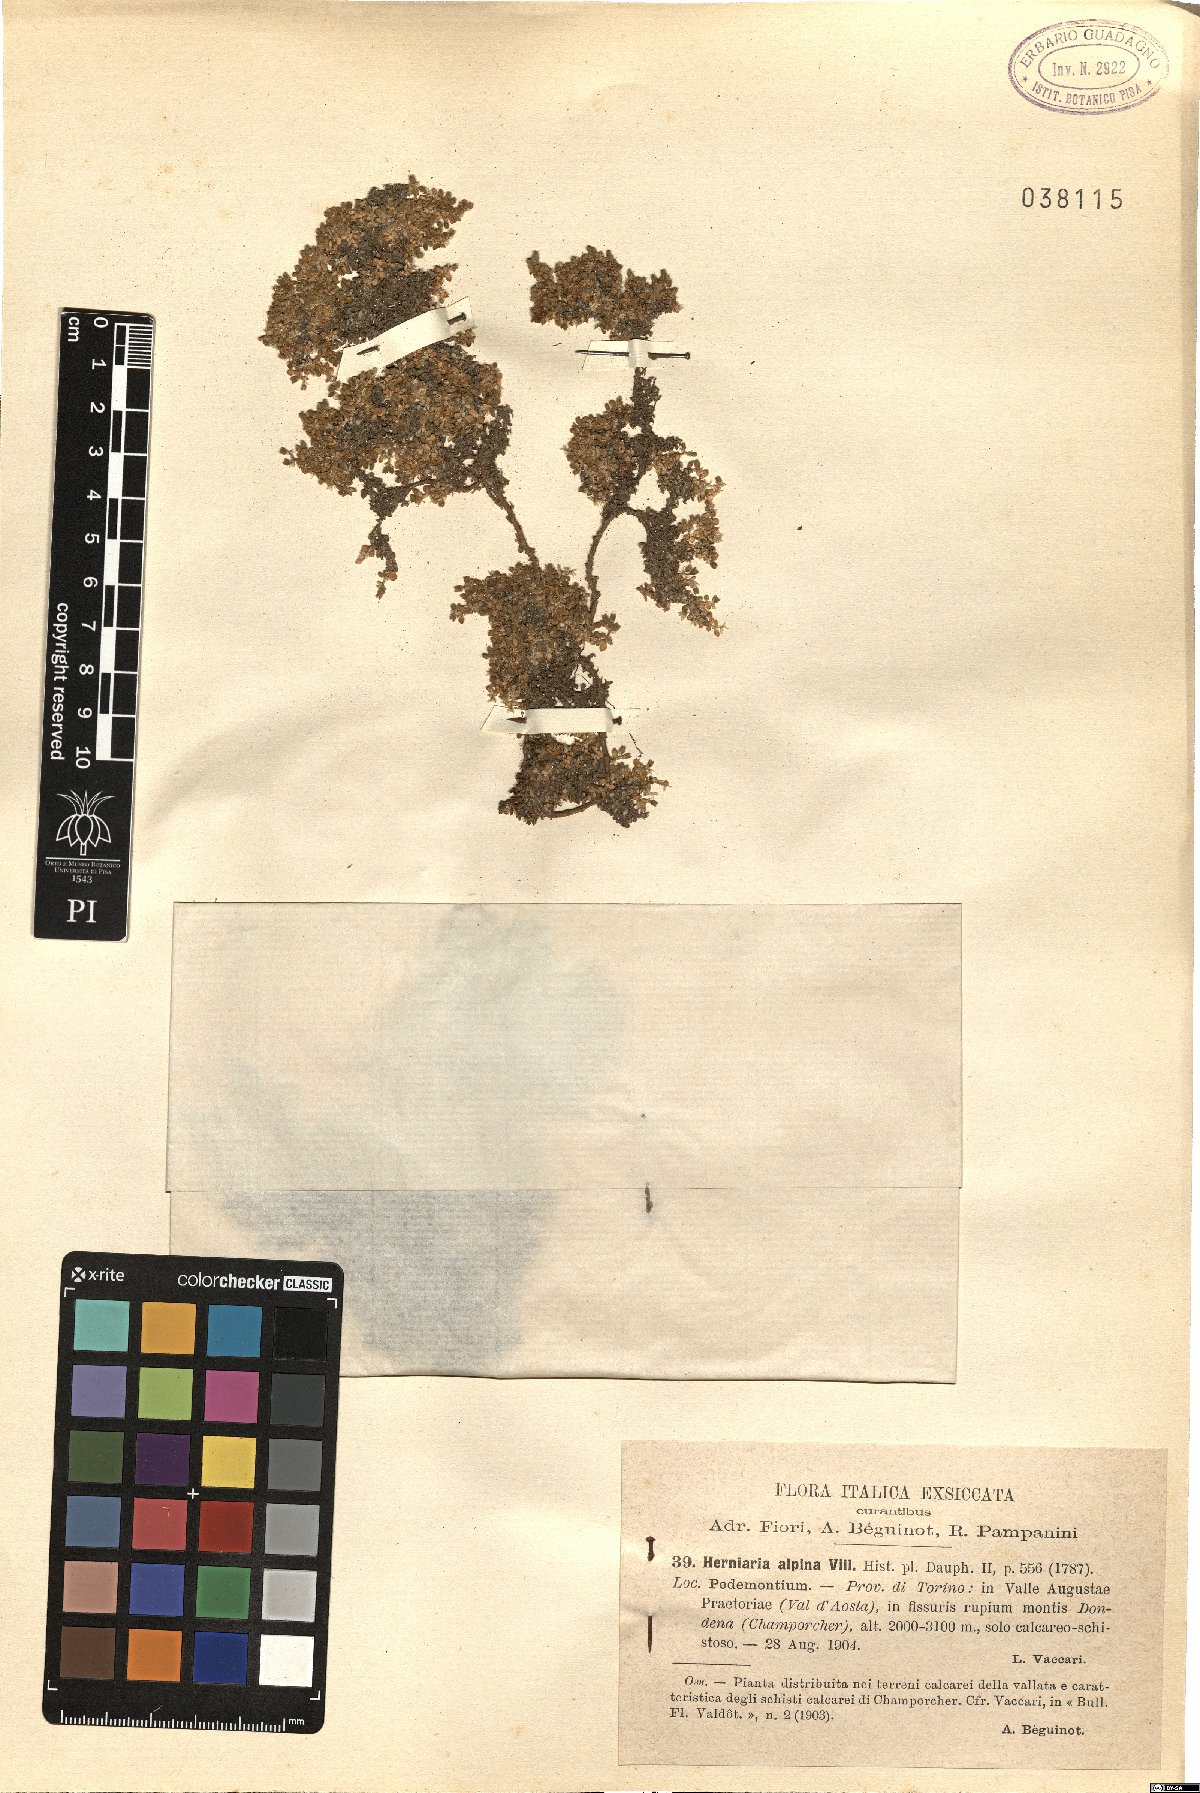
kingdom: Plantae
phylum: Tracheophyta
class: Magnoliopsida
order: Caryophyllales
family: Caryophyllaceae
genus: Herniaria
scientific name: Herniaria alpina
